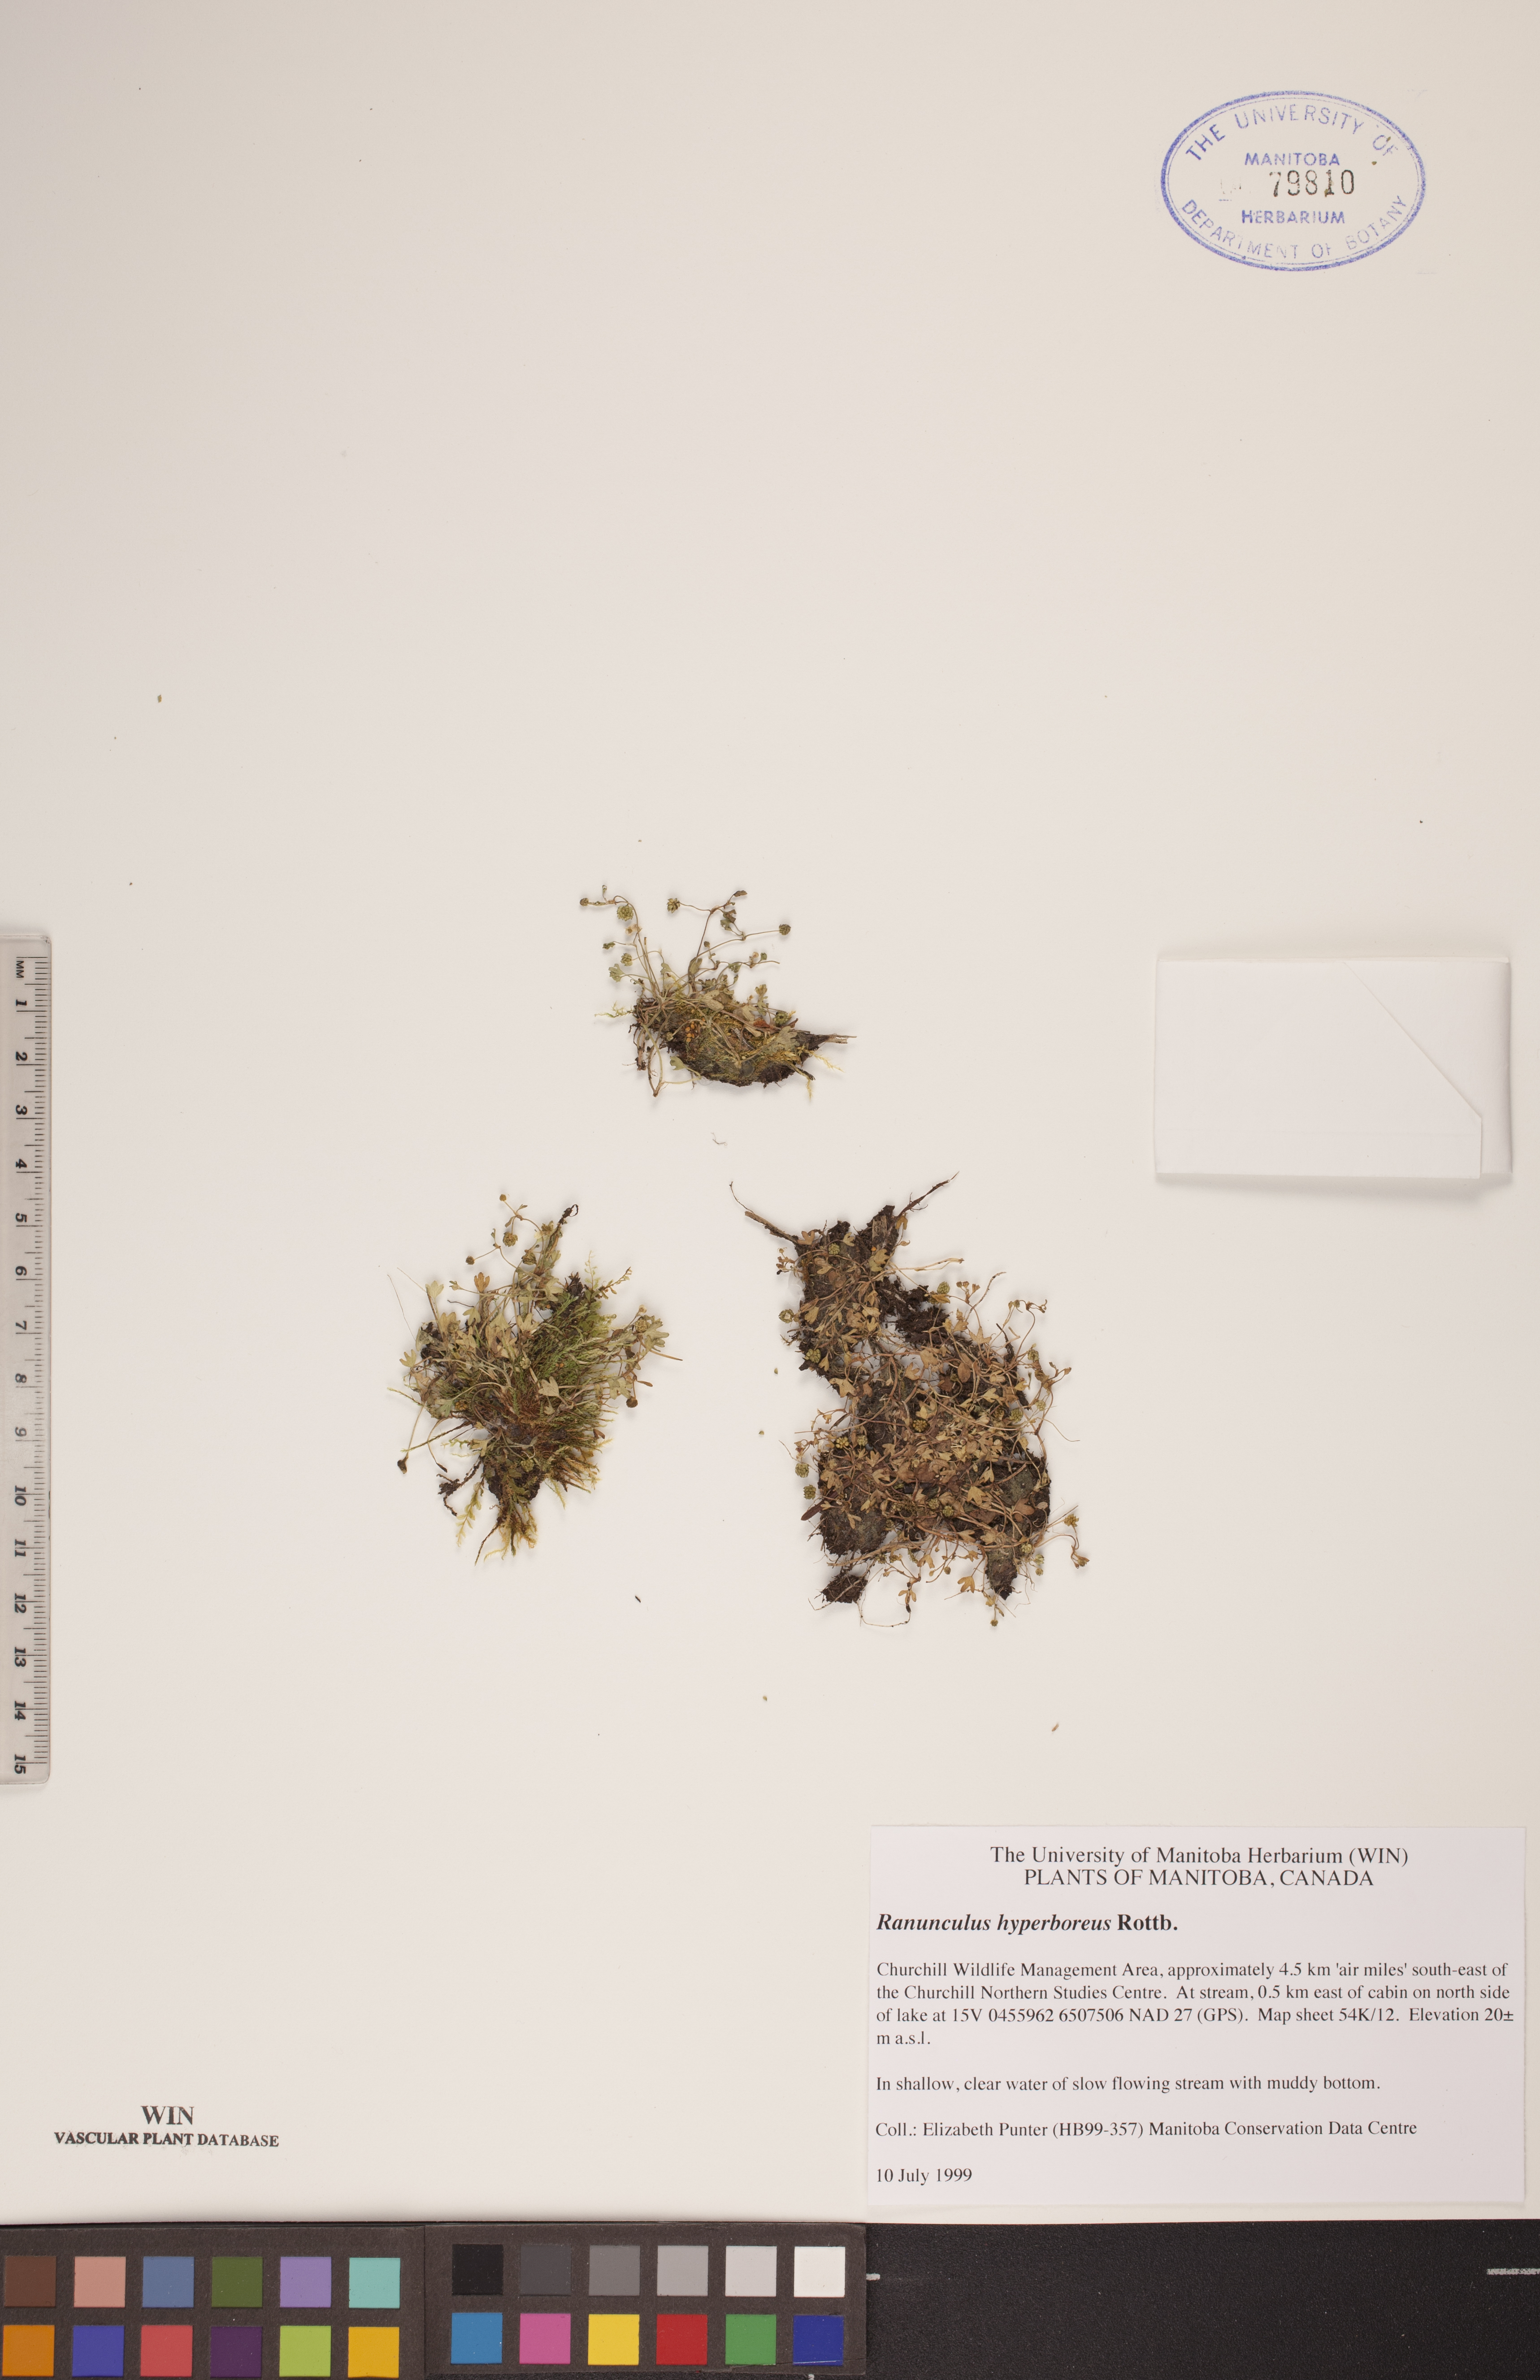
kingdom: Plantae
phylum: Tracheophyta
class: Magnoliopsida
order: Ranunculales
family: Ranunculaceae
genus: Ranunculus
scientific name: Ranunculus hyperboreus
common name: Arctic buttercup
